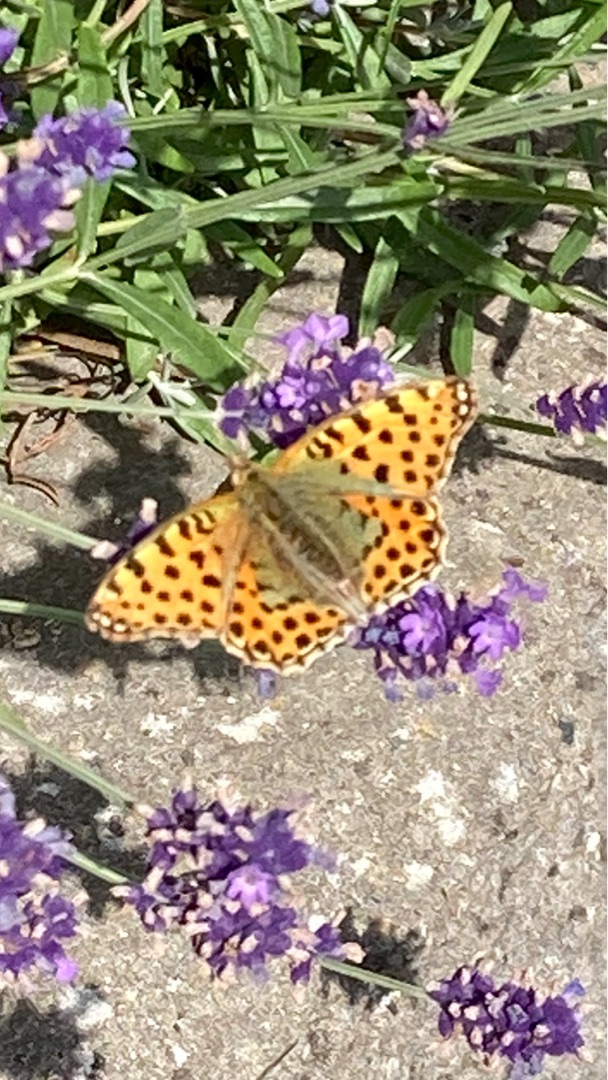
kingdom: Animalia
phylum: Arthropoda
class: Insecta
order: Lepidoptera
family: Nymphalidae
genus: Issoria
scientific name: Issoria lathonia
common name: Storplettet perlemorsommerfugl
